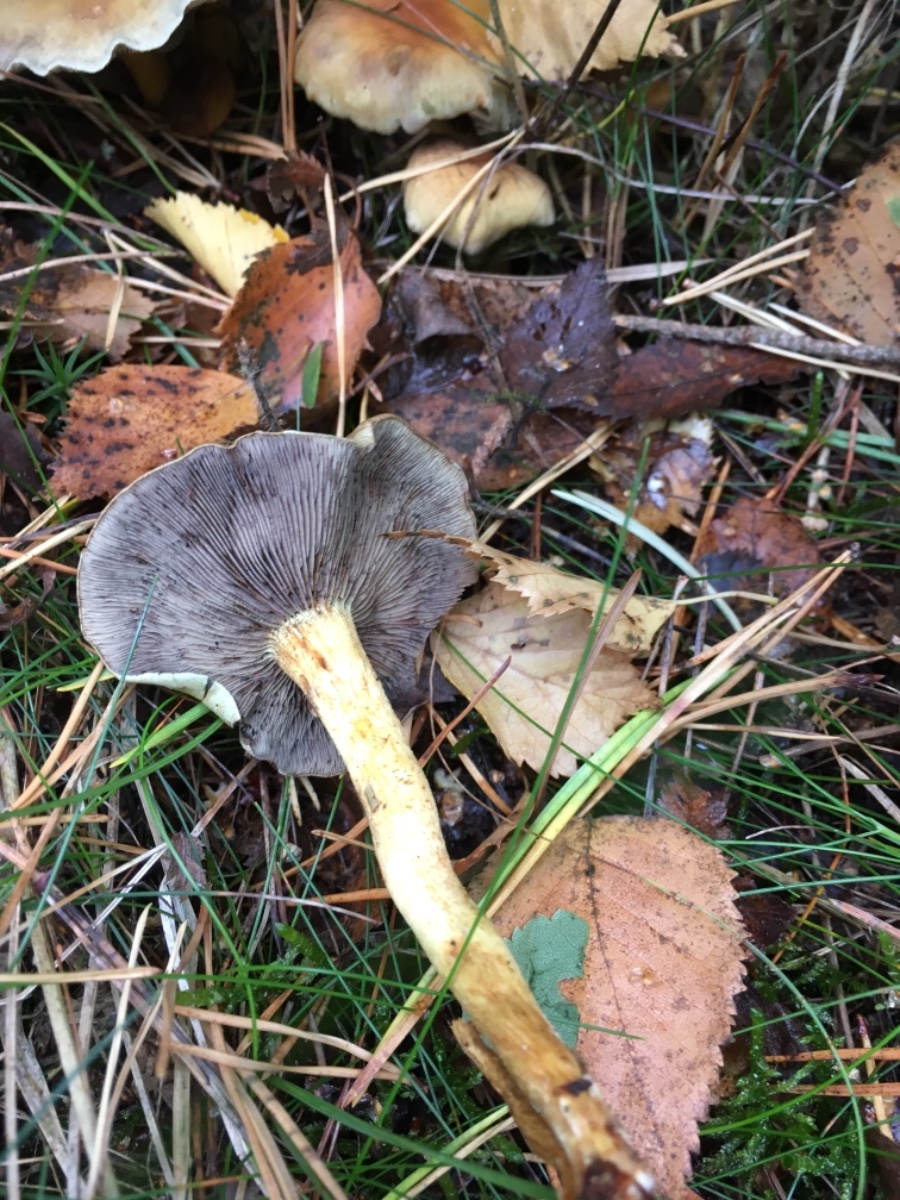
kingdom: Fungi
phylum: Basidiomycota
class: Agaricomycetes
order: Agaricales
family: Strophariaceae
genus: Hypholoma
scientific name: Hypholoma fasciculare
